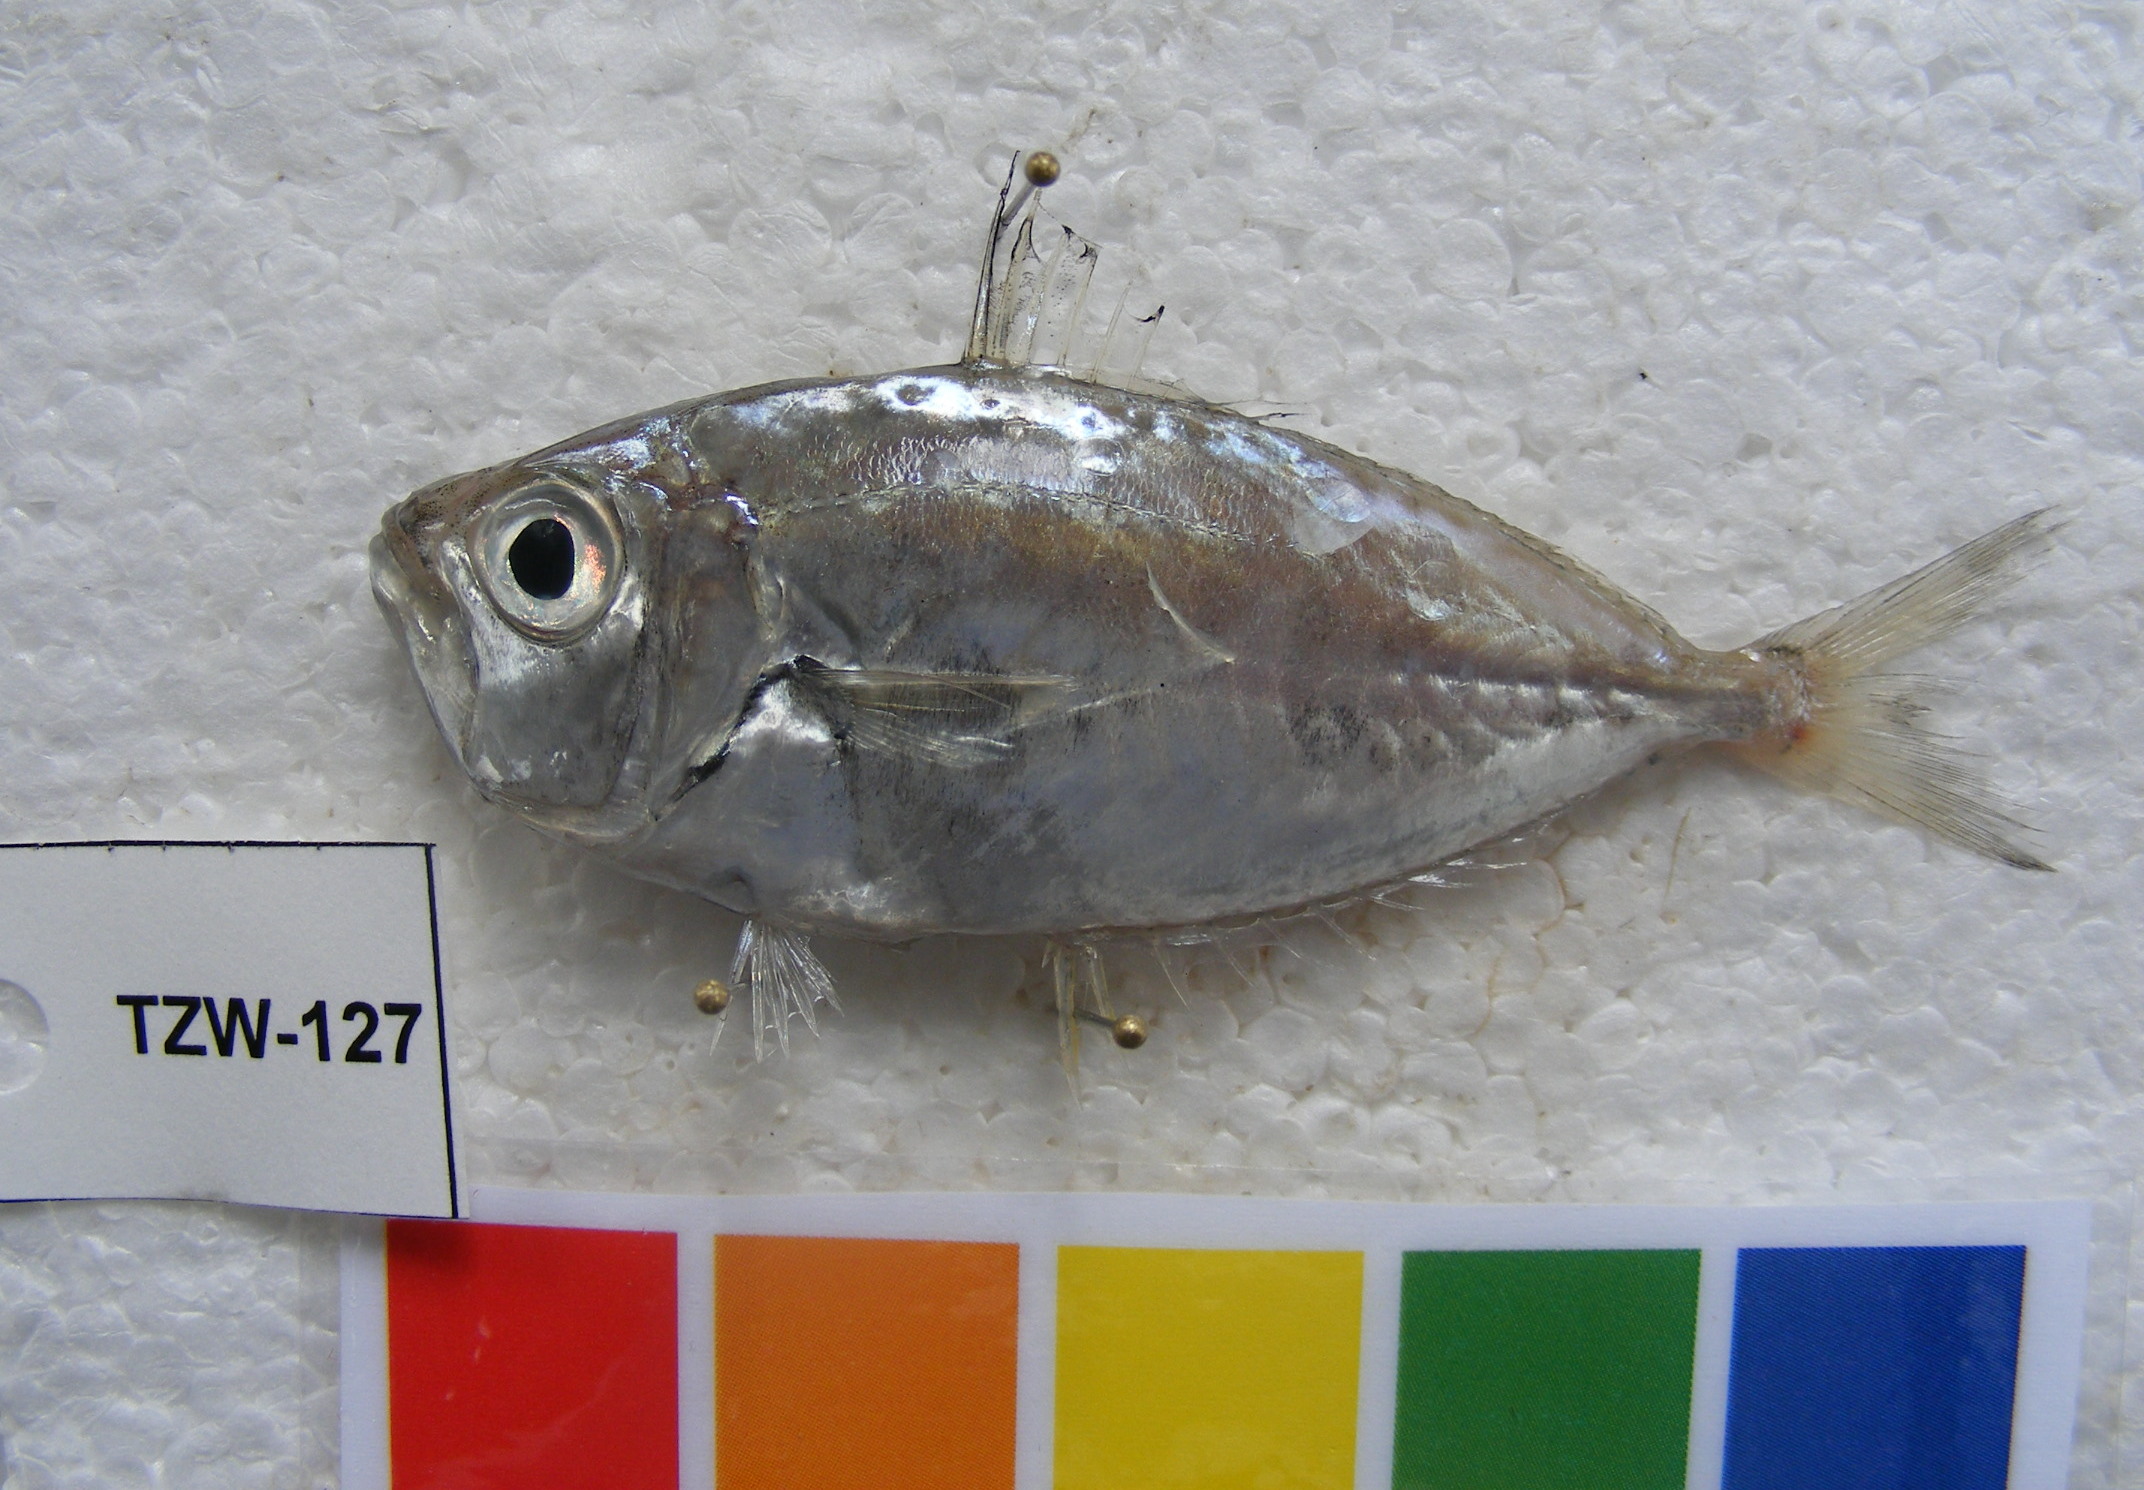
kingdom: Animalia
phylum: Chordata
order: Perciformes
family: Leiognathidae
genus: Gazza
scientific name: Gazza minuta
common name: Toothpony
